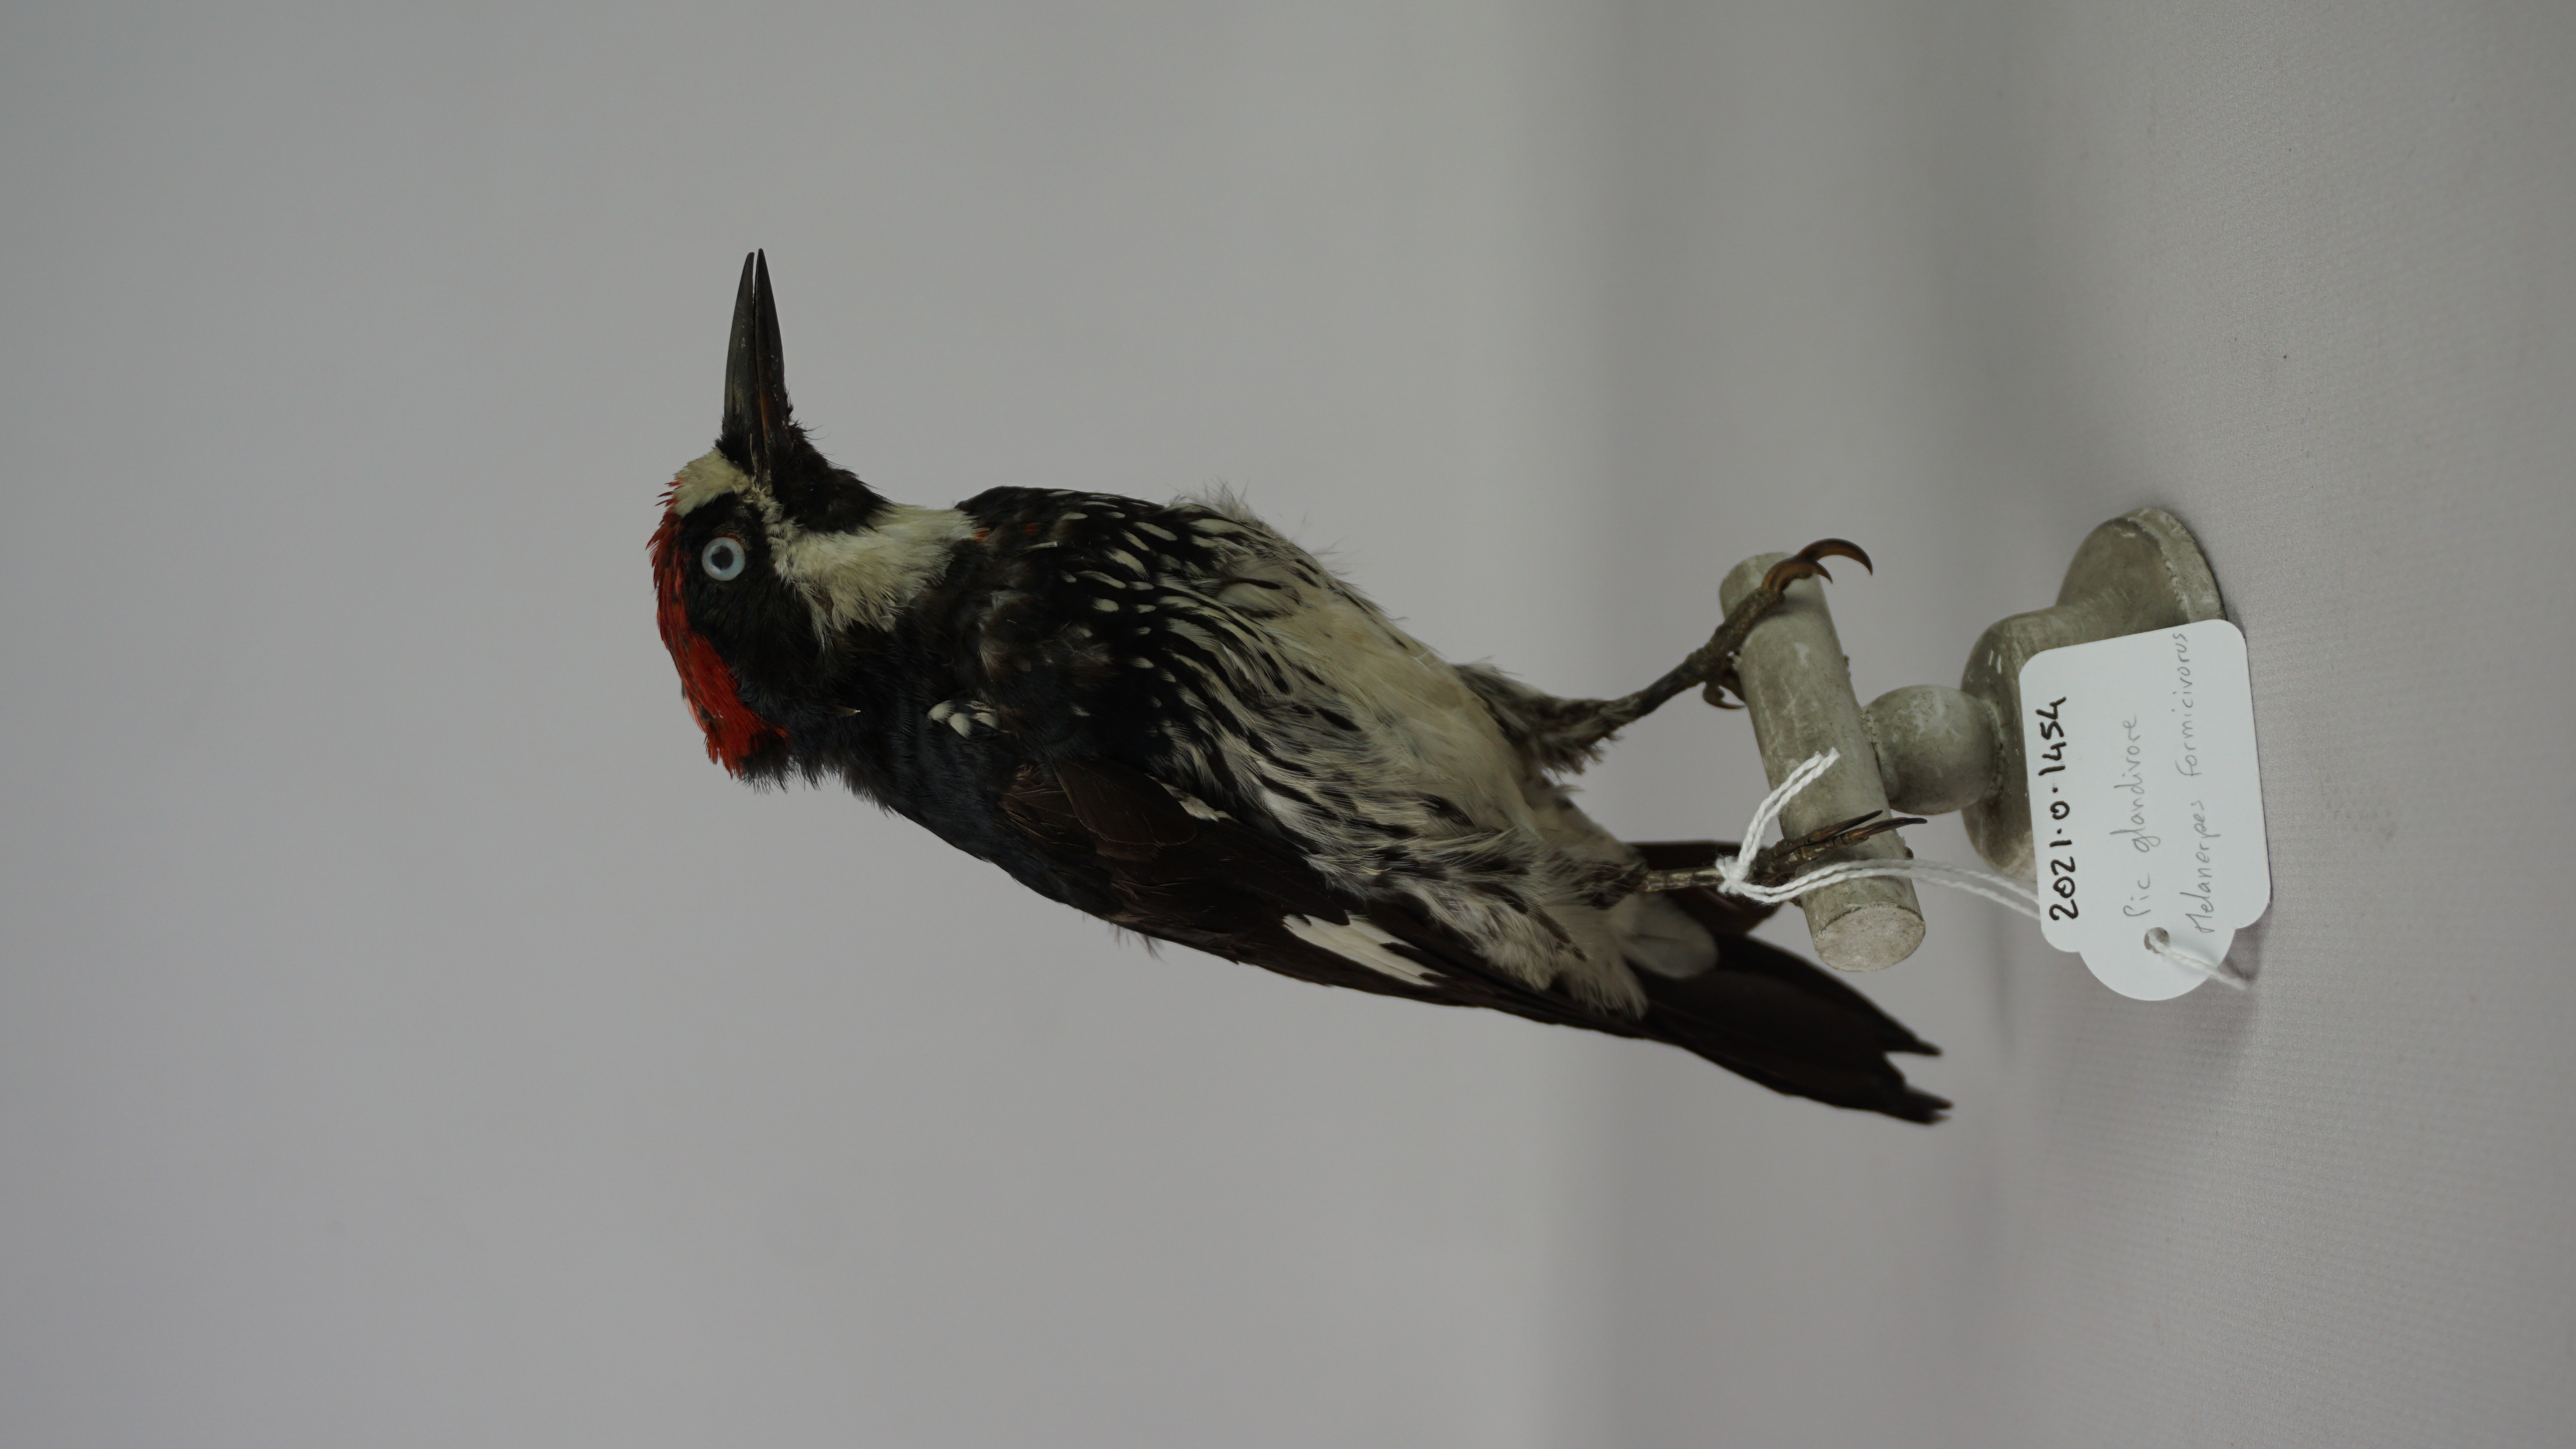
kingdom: Animalia
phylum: Chordata
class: Aves
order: Piciformes
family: Picidae
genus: Melanerpes
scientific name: Melanerpes formicivorus
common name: Acorn woodpecker
